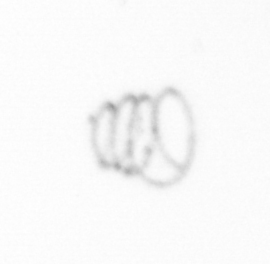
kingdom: Chromista
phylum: Ochrophyta
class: Bacillariophyceae
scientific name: Bacillariophyceae
